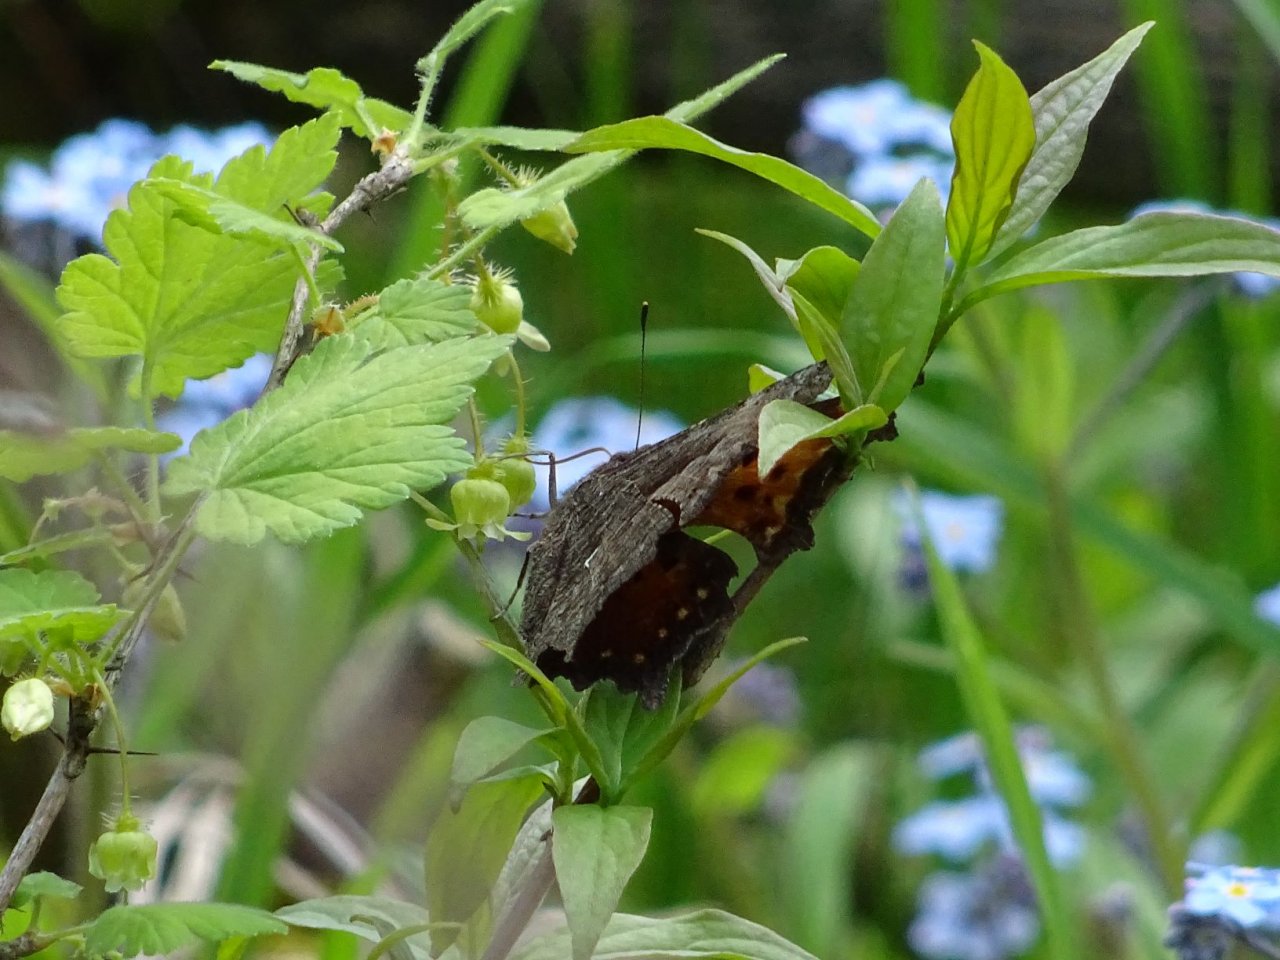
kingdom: Animalia
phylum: Arthropoda
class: Insecta
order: Lepidoptera
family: Nymphalidae
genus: Polygonia
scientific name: Polygonia progne
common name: Gray Comma
